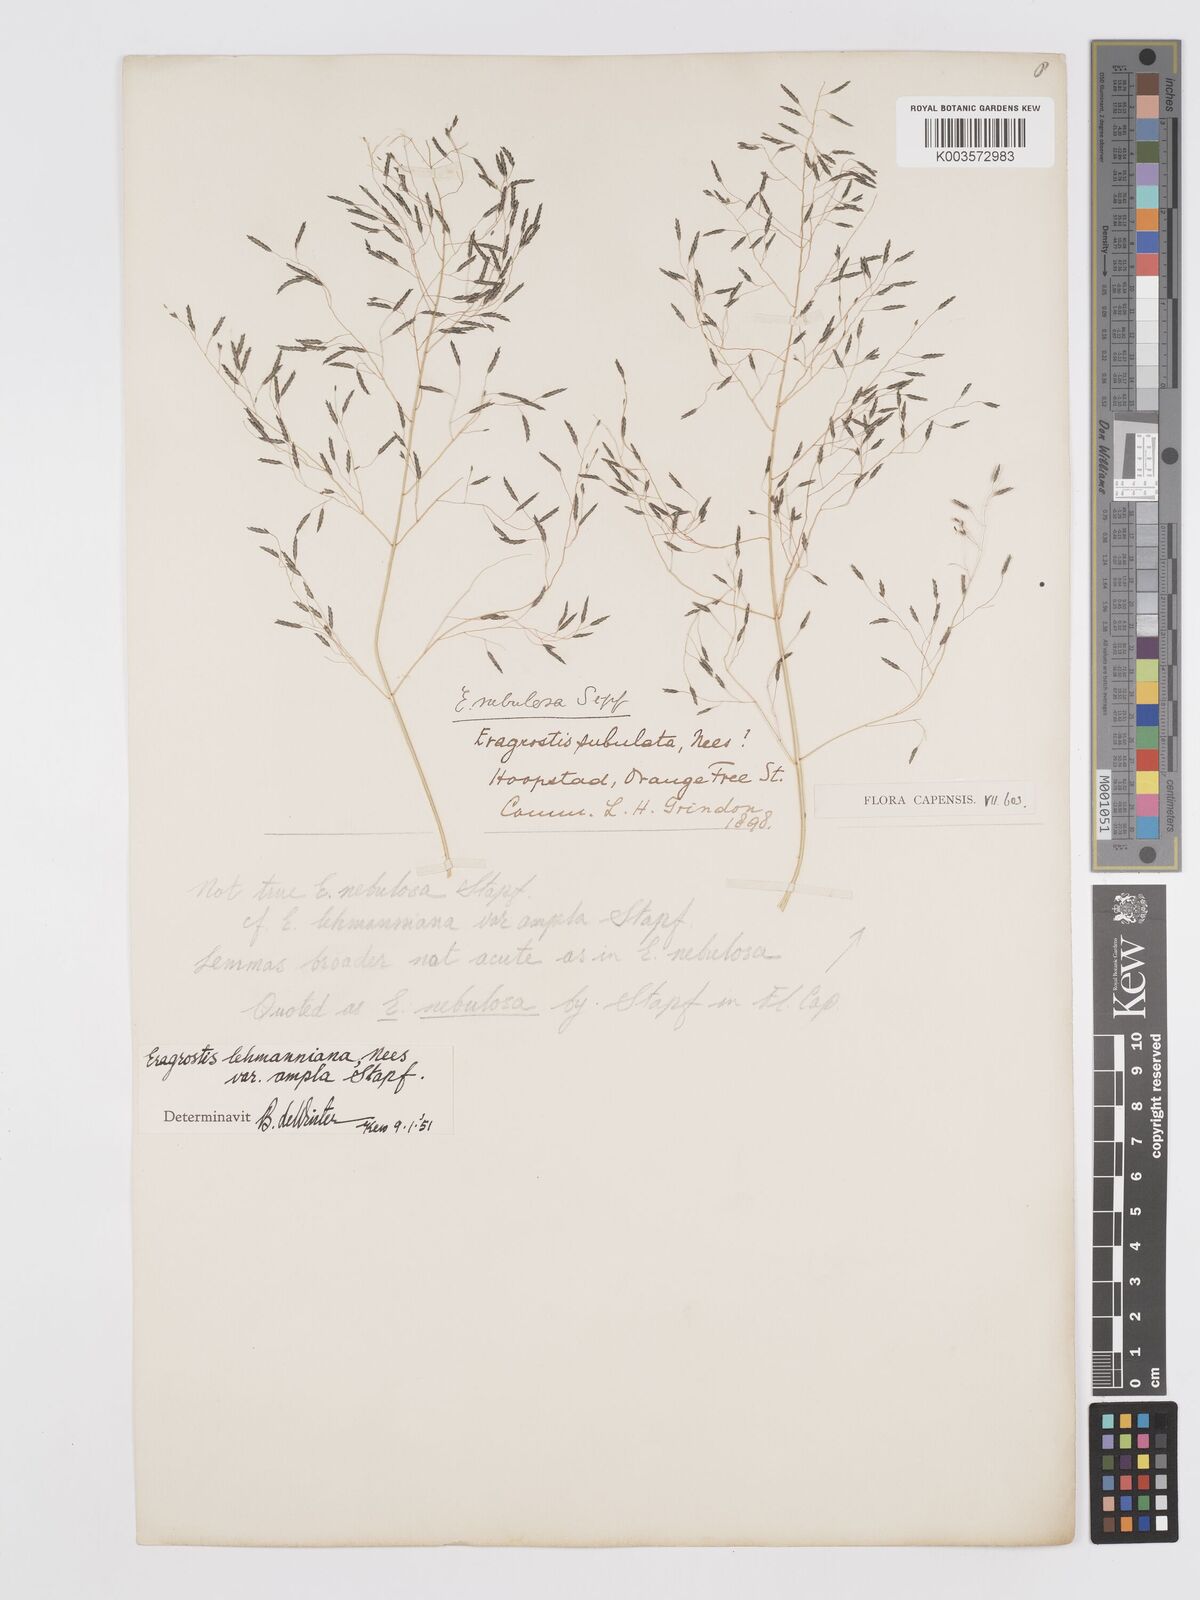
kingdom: Plantae
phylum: Tracheophyta
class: Liliopsida
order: Poales
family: Poaceae
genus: Eragrostis
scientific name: Eragrostis curvula
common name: African love-grass
